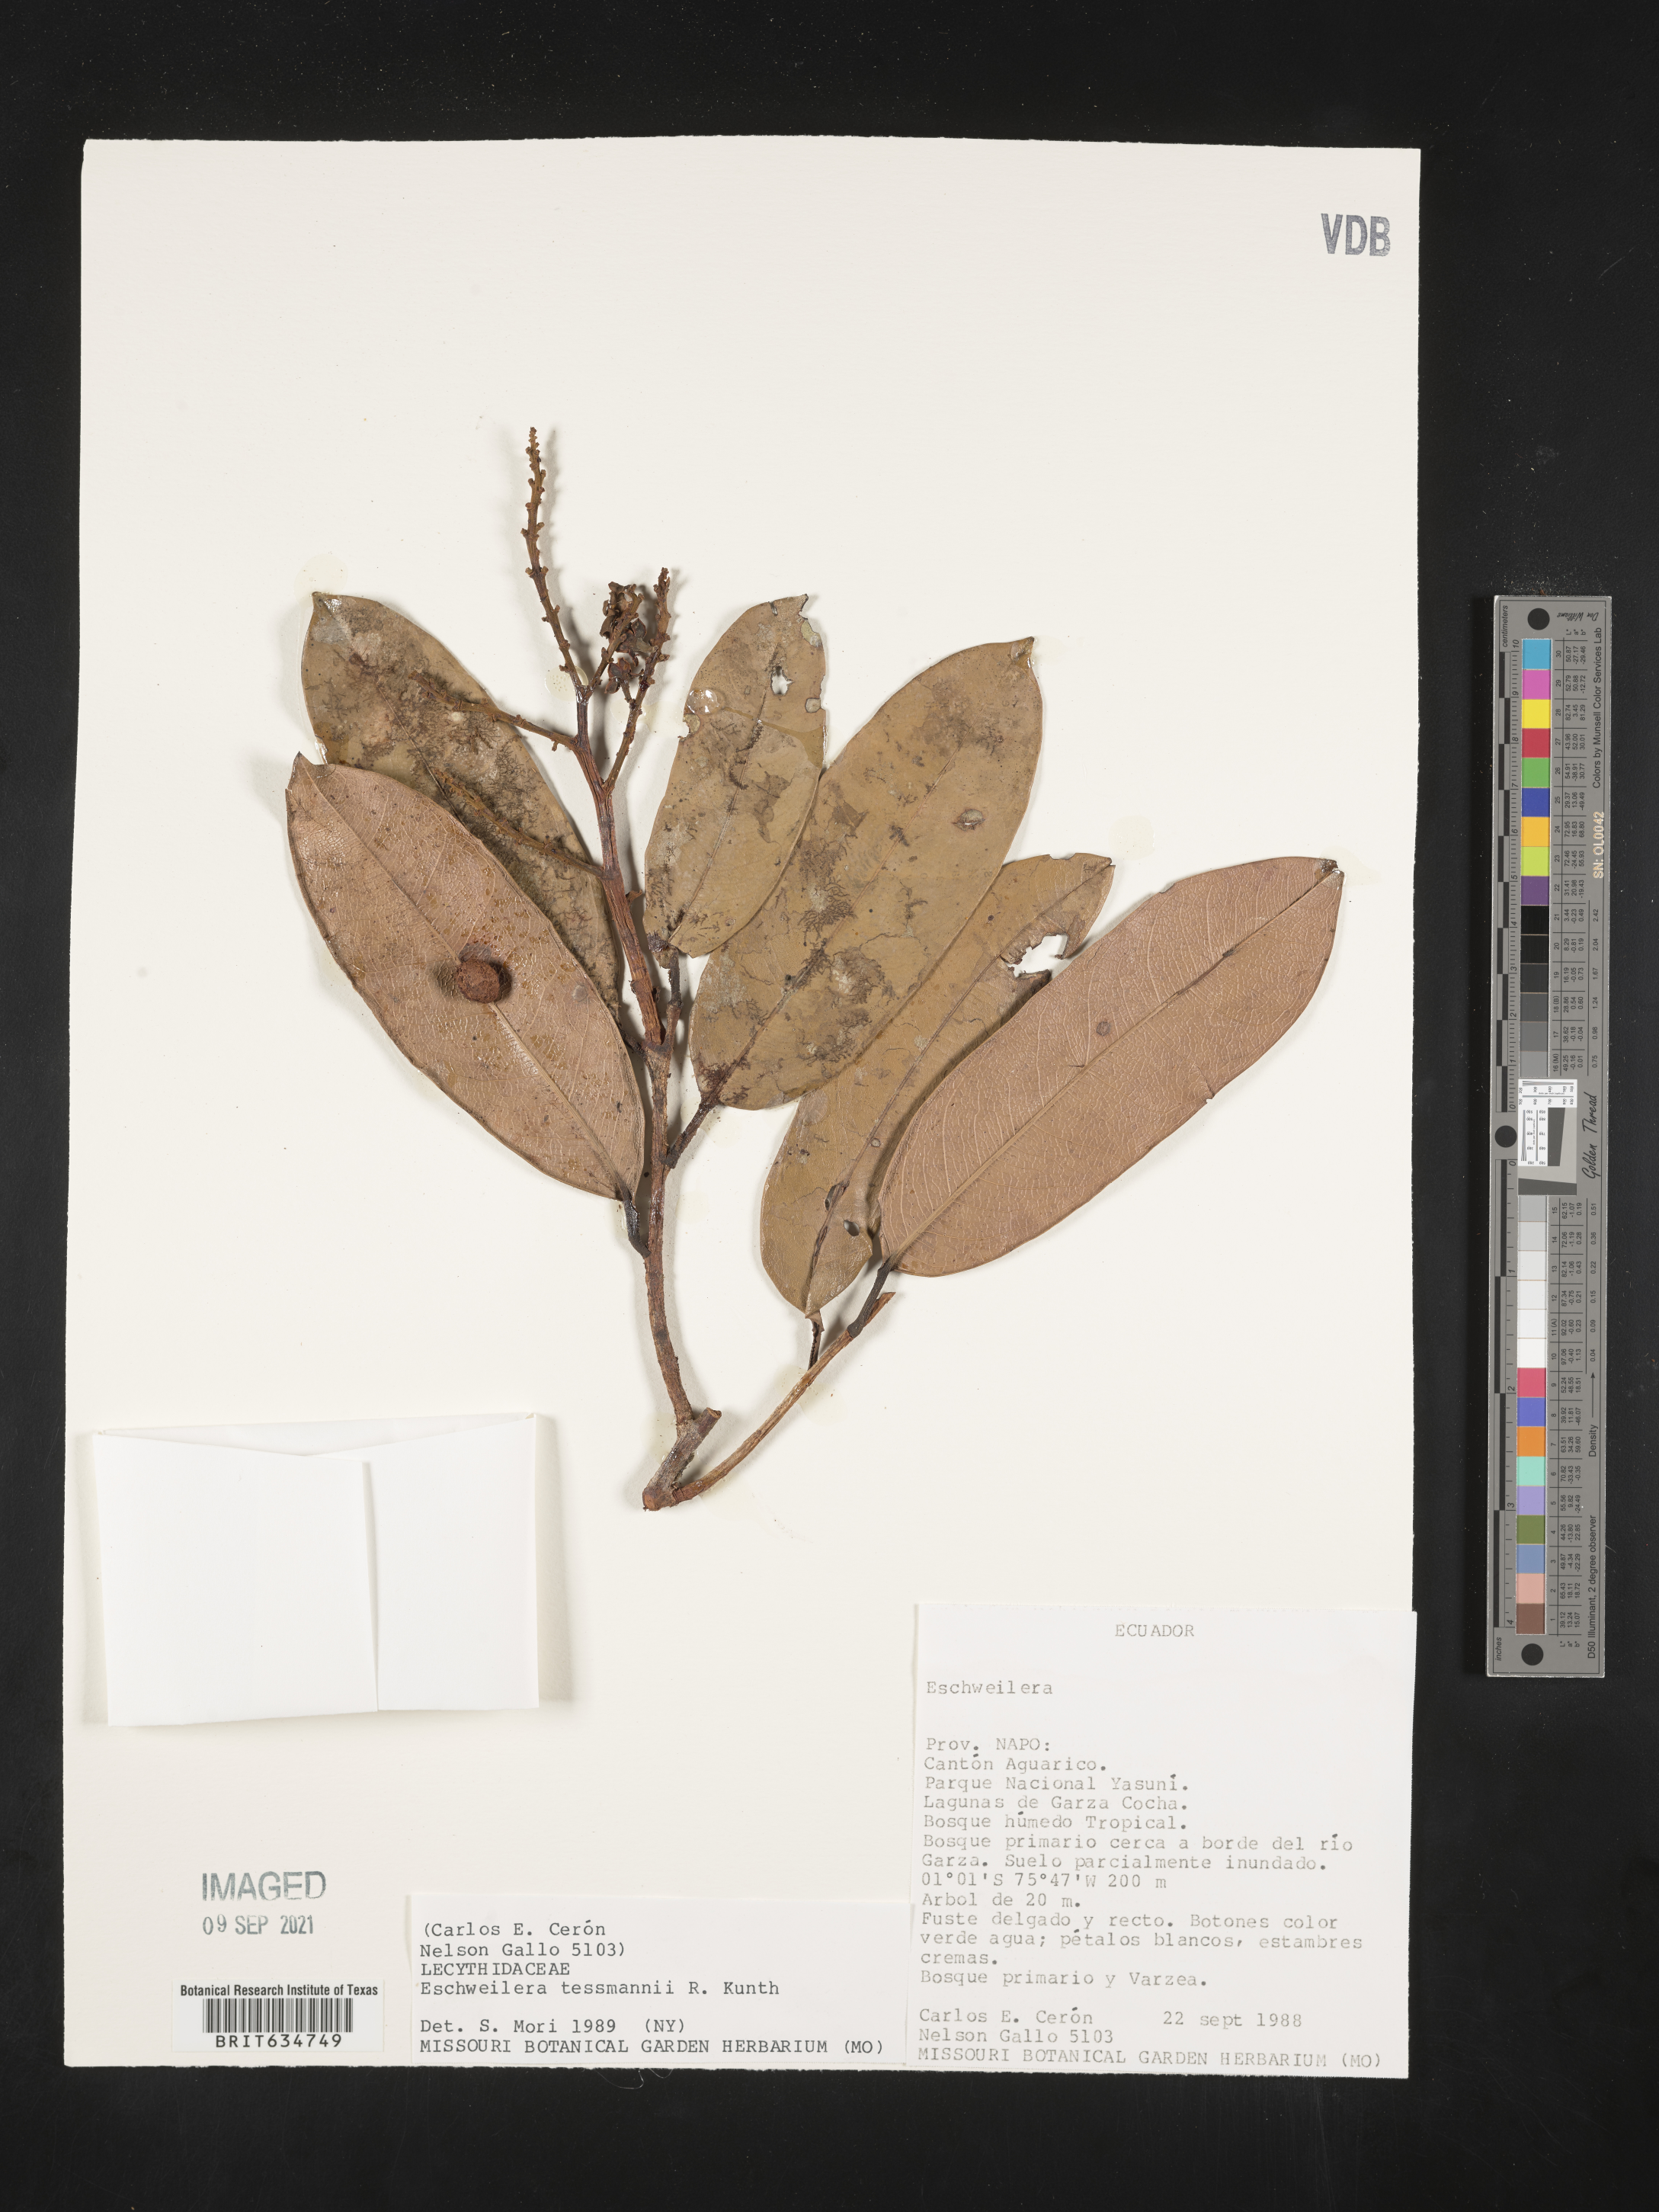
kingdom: Plantae
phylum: Tracheophyta
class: Magnoliopsida
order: Ericales
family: Lecythidaceae
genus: Eschweilera
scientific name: Eschweilera
